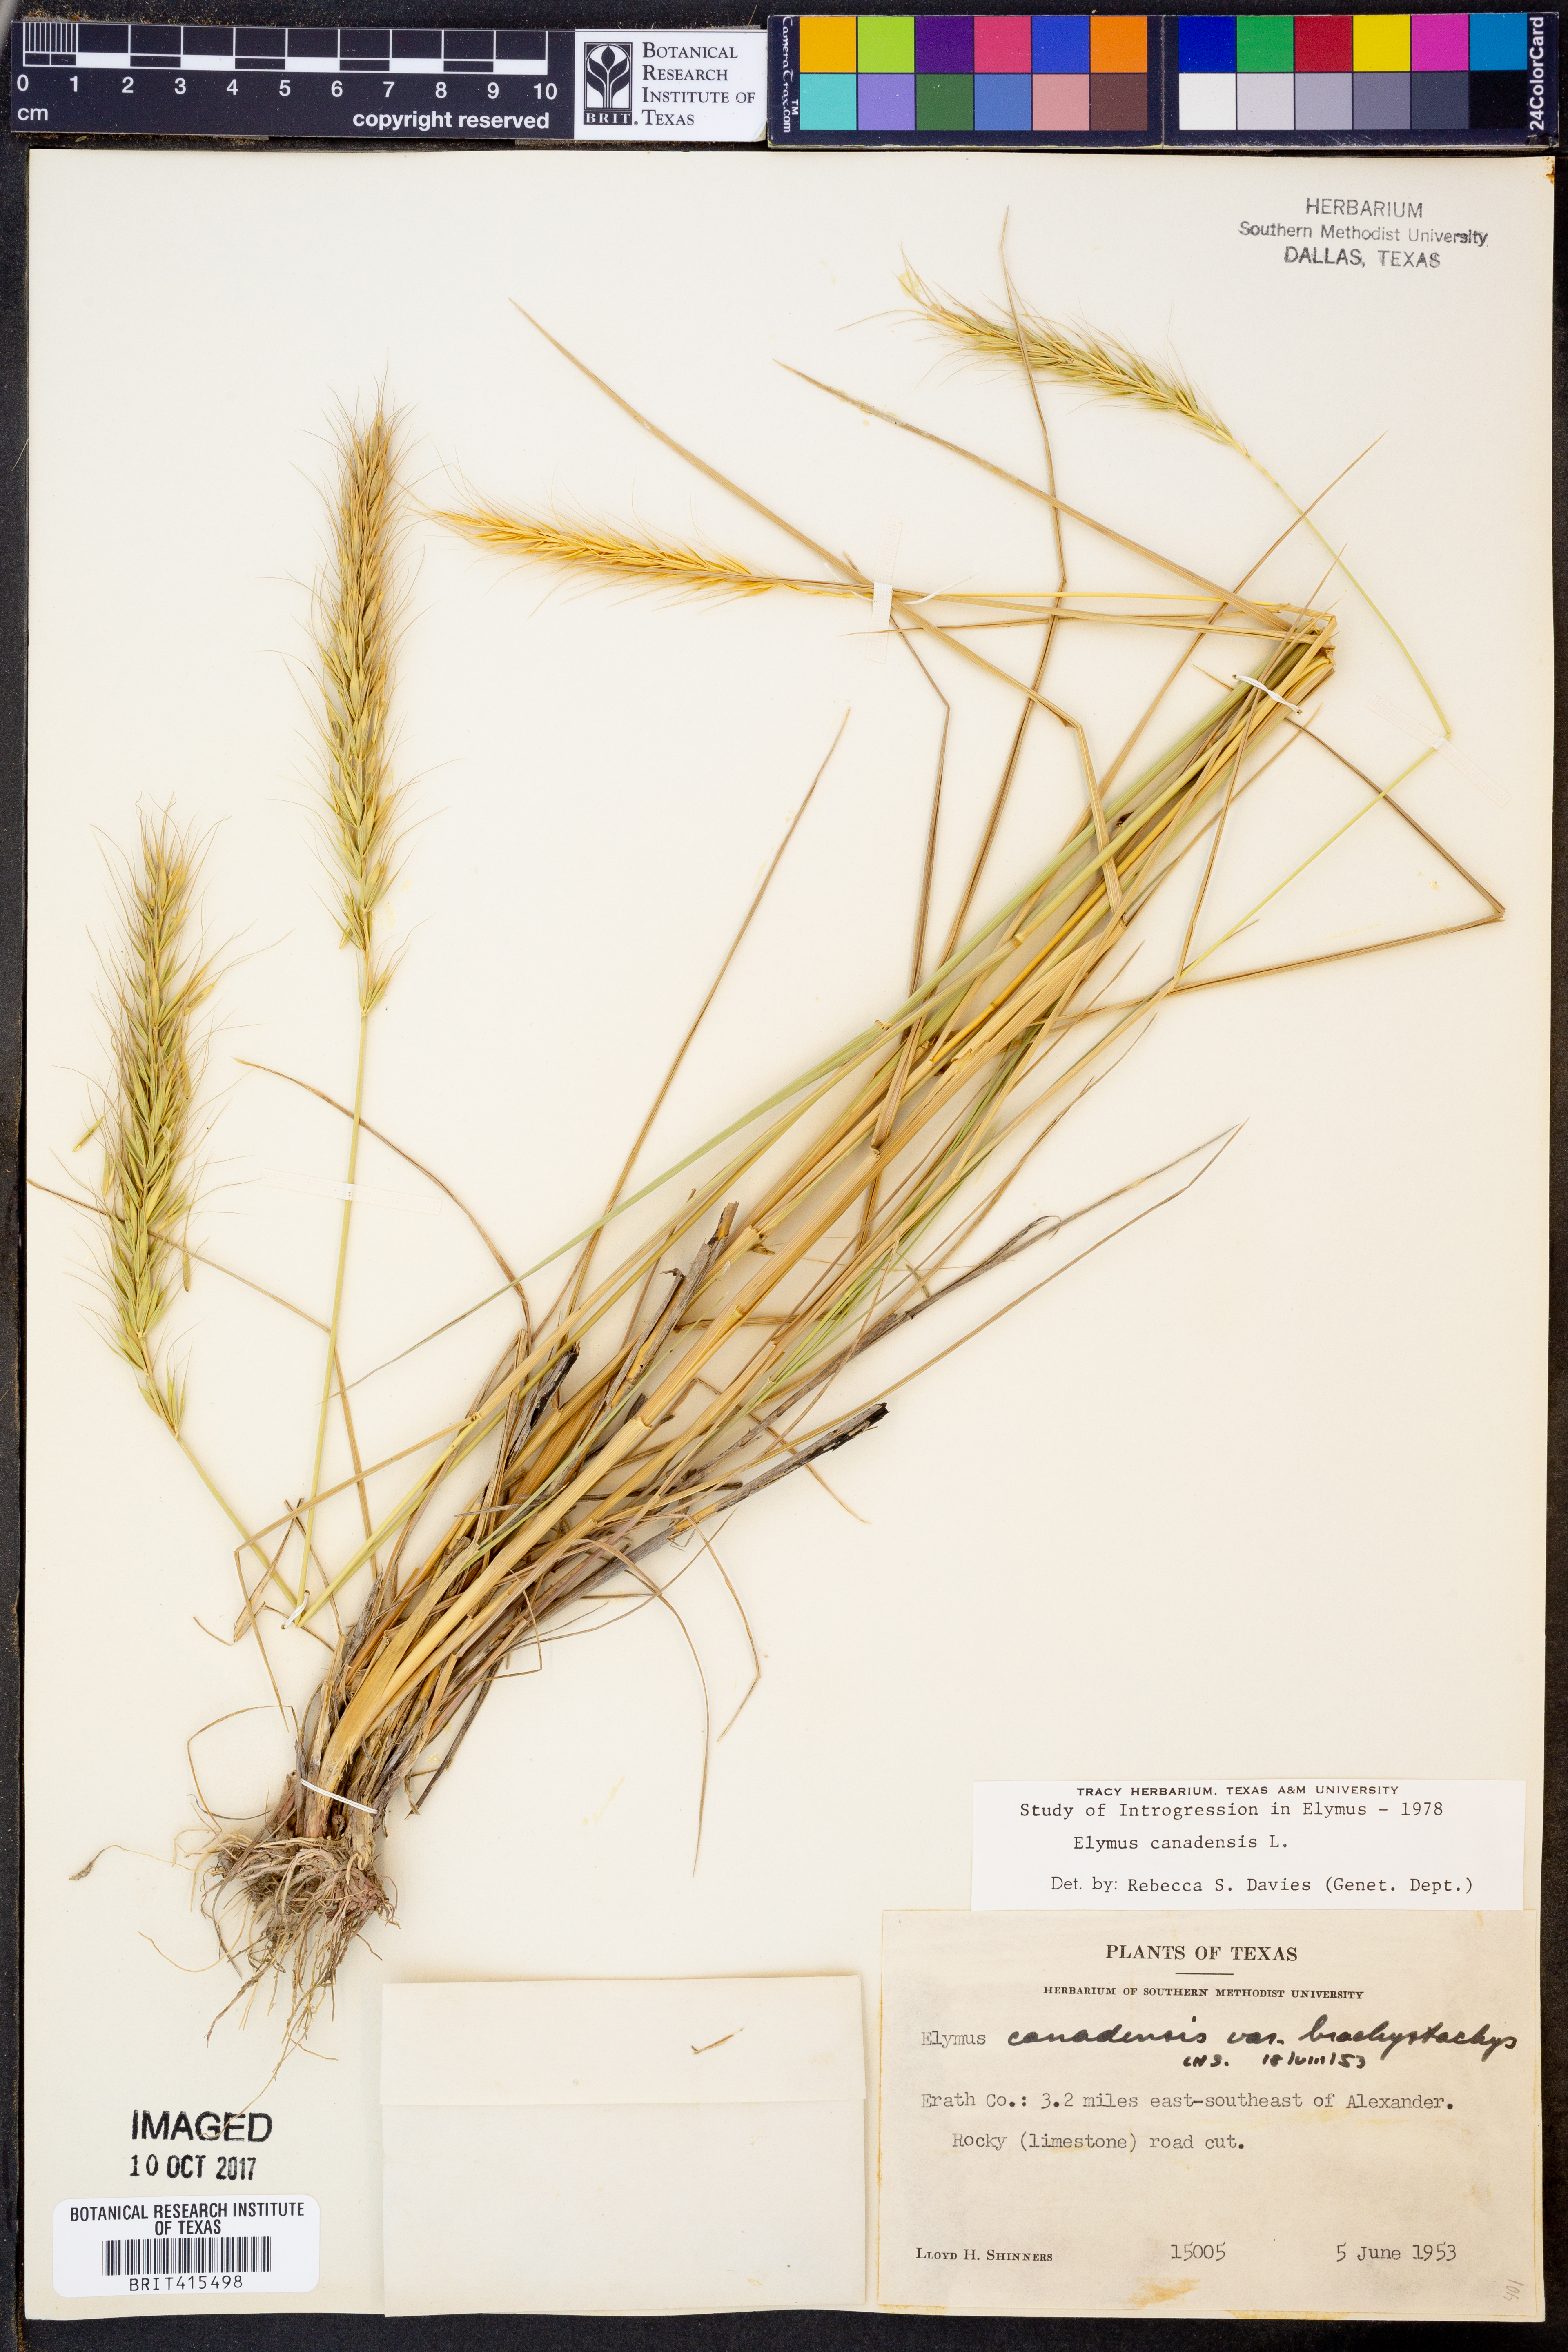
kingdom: Plantae
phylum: Tracheophyta
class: Liliopsida
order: Poales
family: Poaceae
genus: Elymus
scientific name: Elymus canadensis
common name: Canada wild rye
